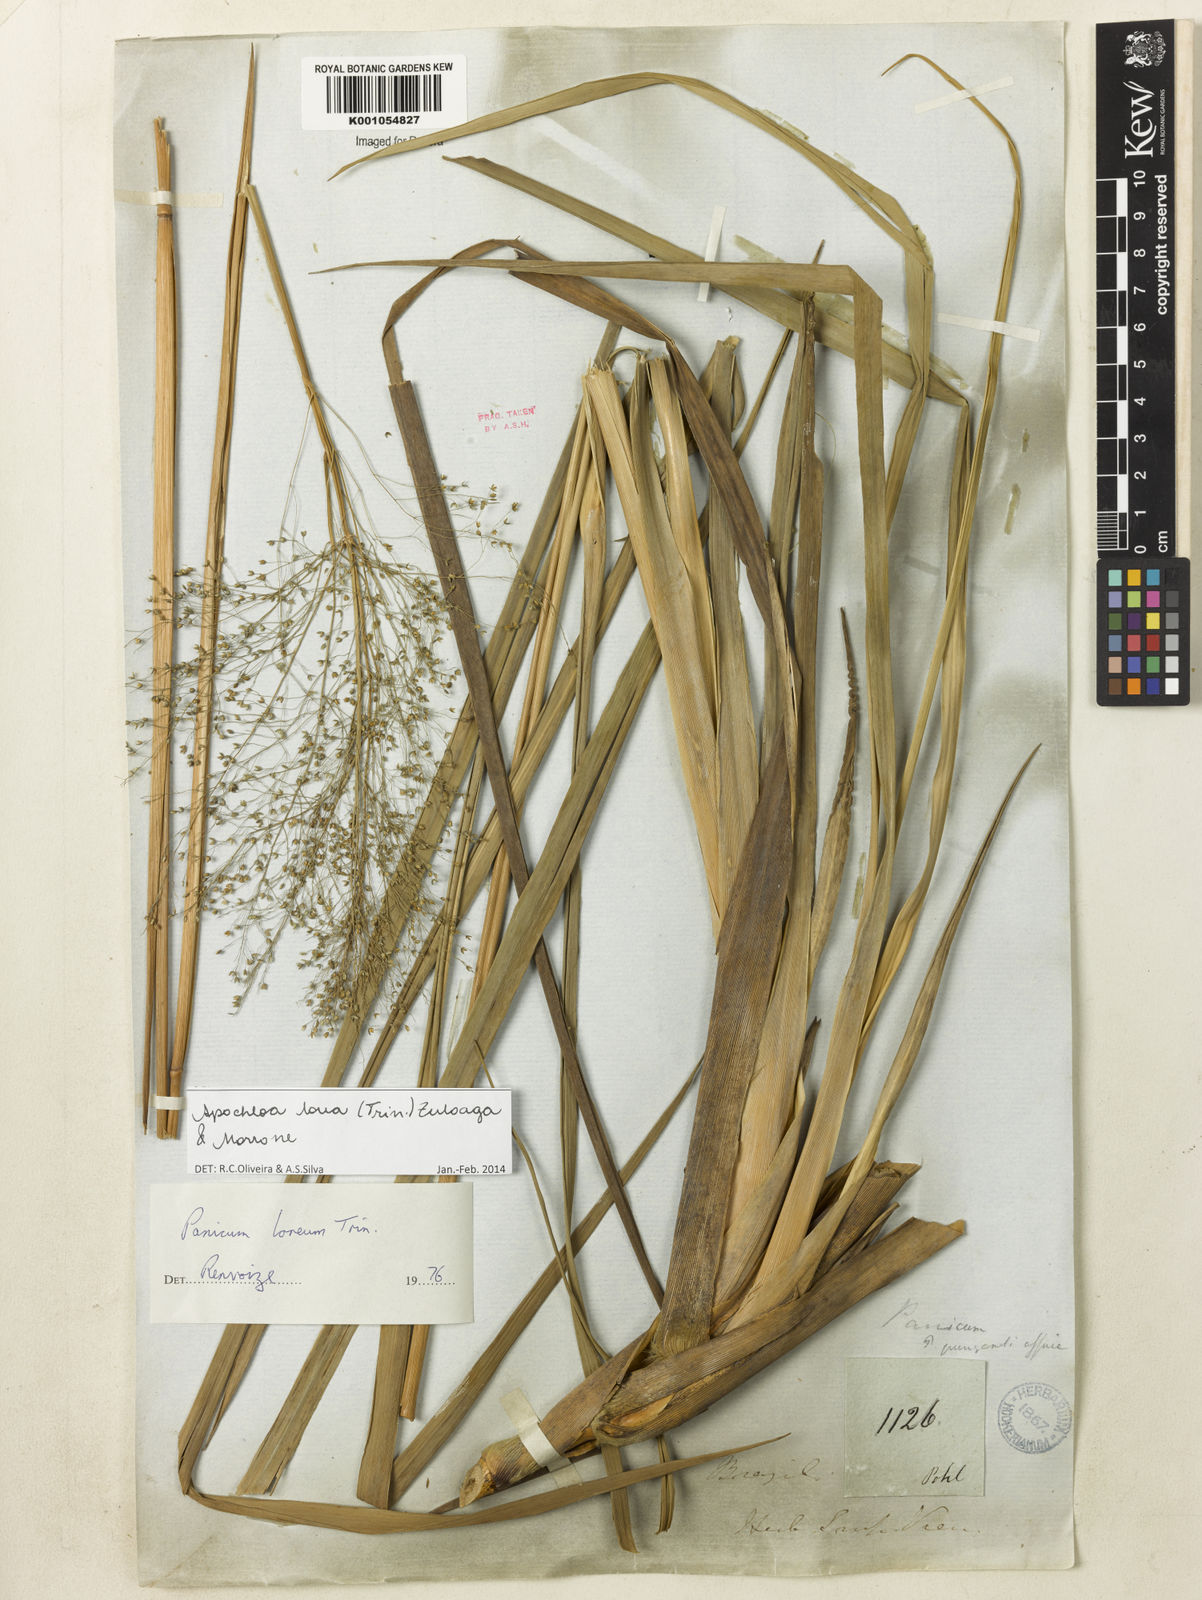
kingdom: Plantae
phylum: Tracheophyta
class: Liliopsida
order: Poales
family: Poaceae
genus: Apochloa
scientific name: Apochloa lorea
